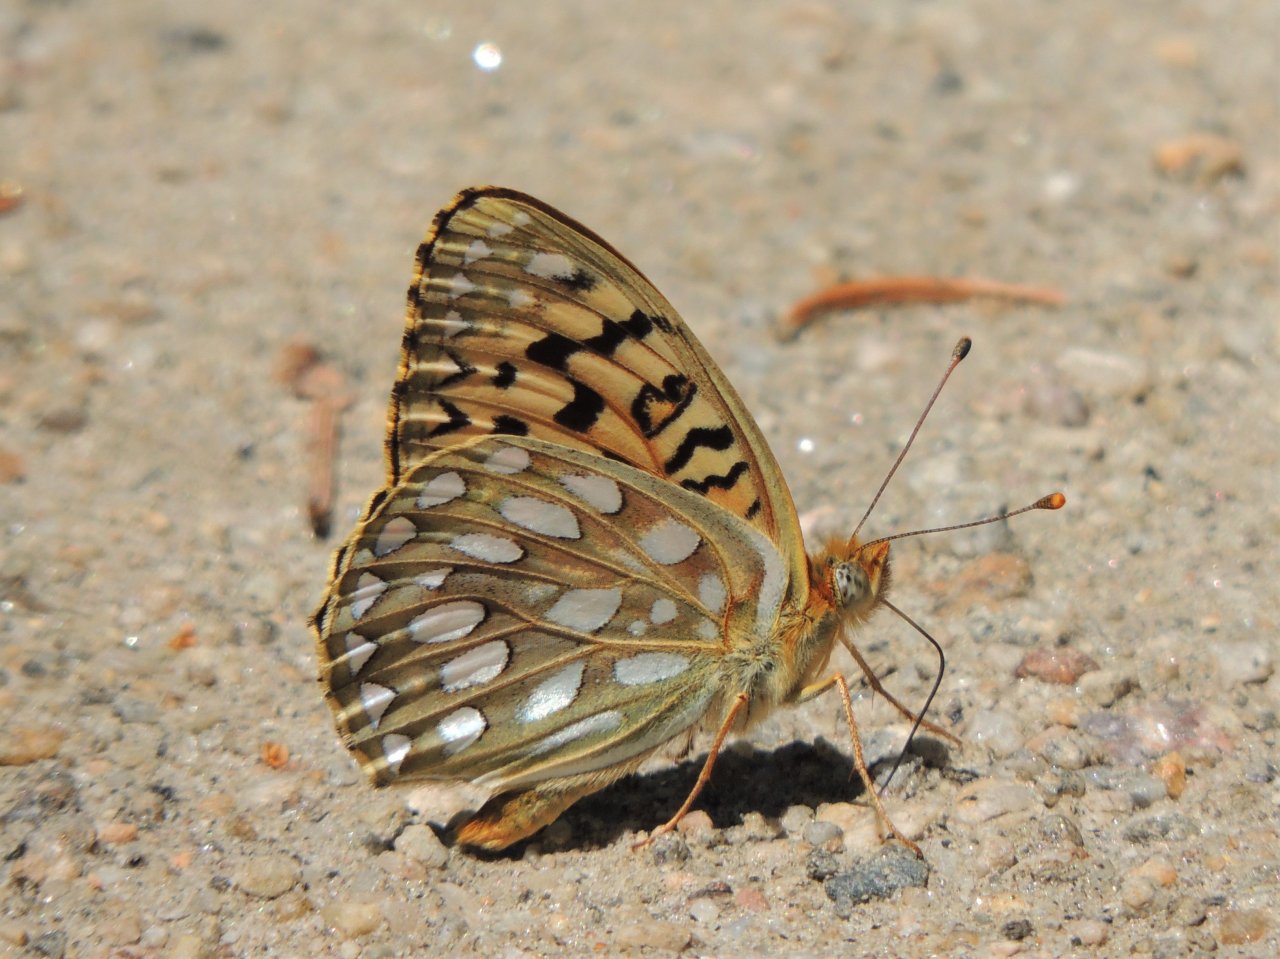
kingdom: Animalia
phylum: Arthropoda
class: Insecta
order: Lepidoptera
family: Nymphalidae
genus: Speyeria
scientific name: Speyeria callippe
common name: Callippe Fritillary
